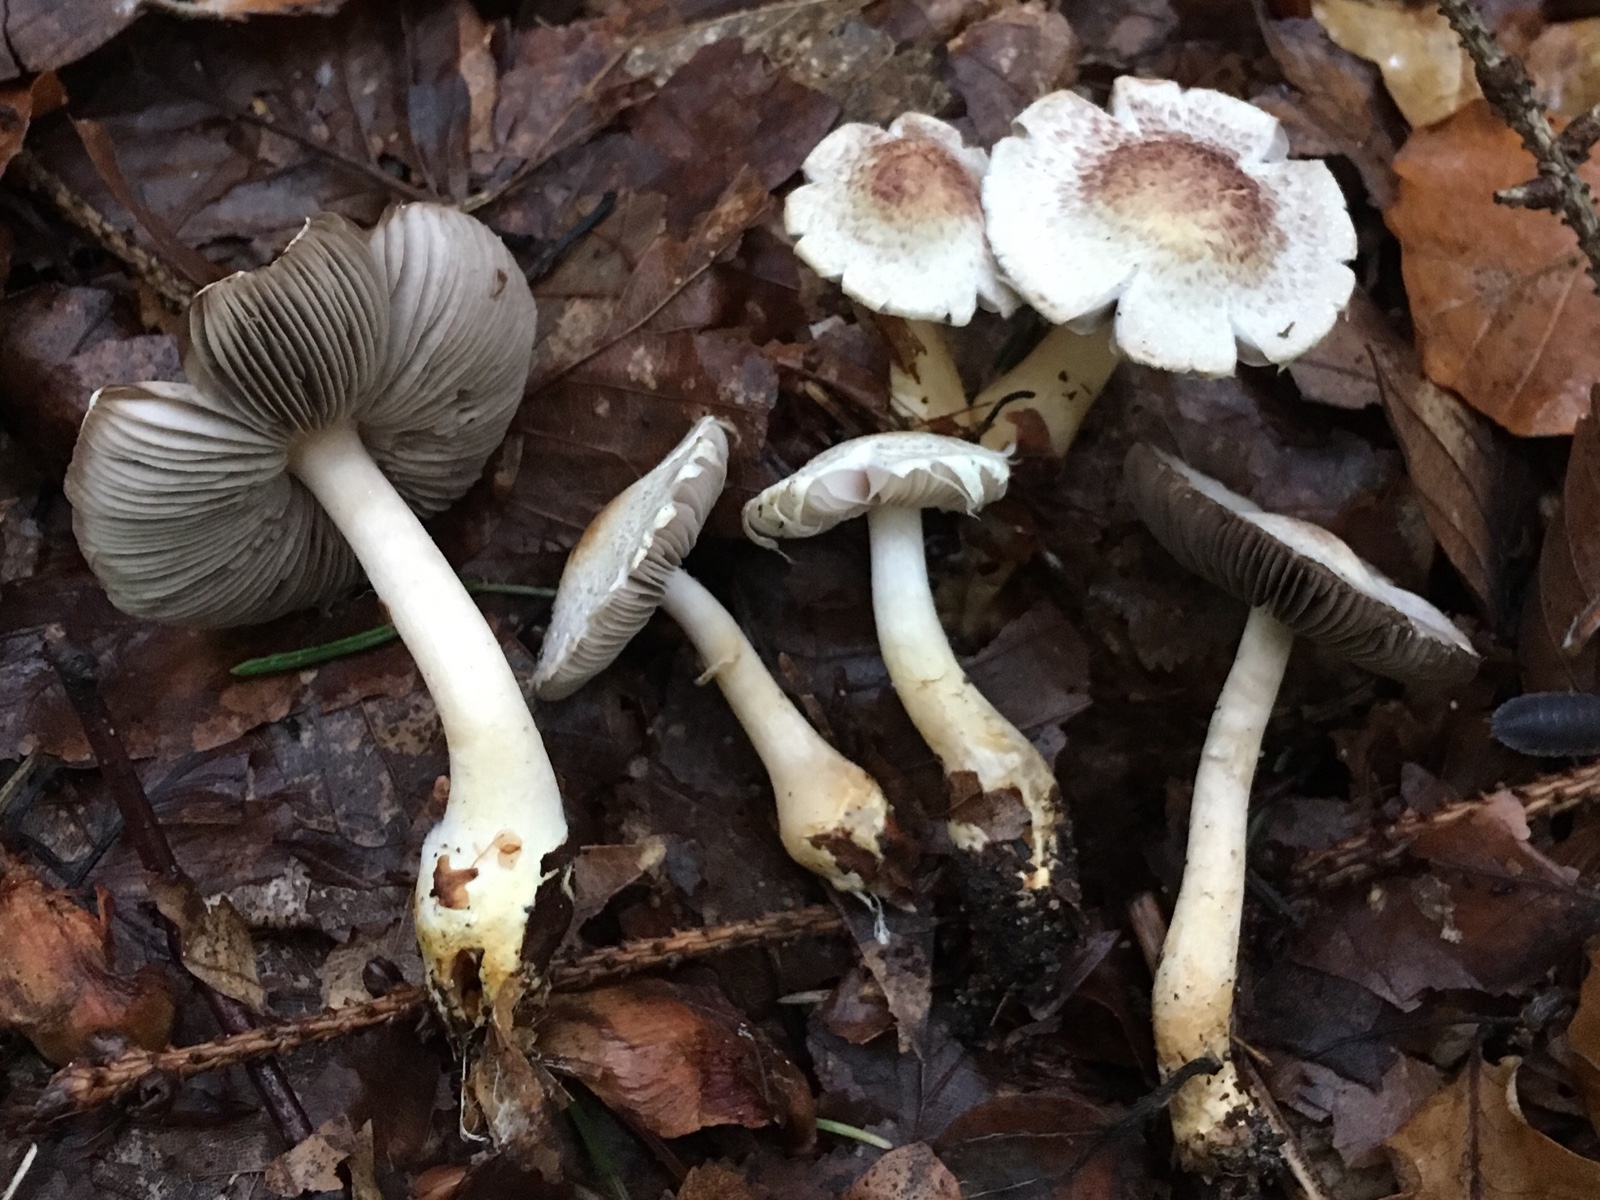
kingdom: Fungi
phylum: Basidiomycota
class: Agaricomycetes
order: Agaricales
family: Agaricaceae
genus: Agaricus
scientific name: Agaricus dulcidulus
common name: blegrød champignon
